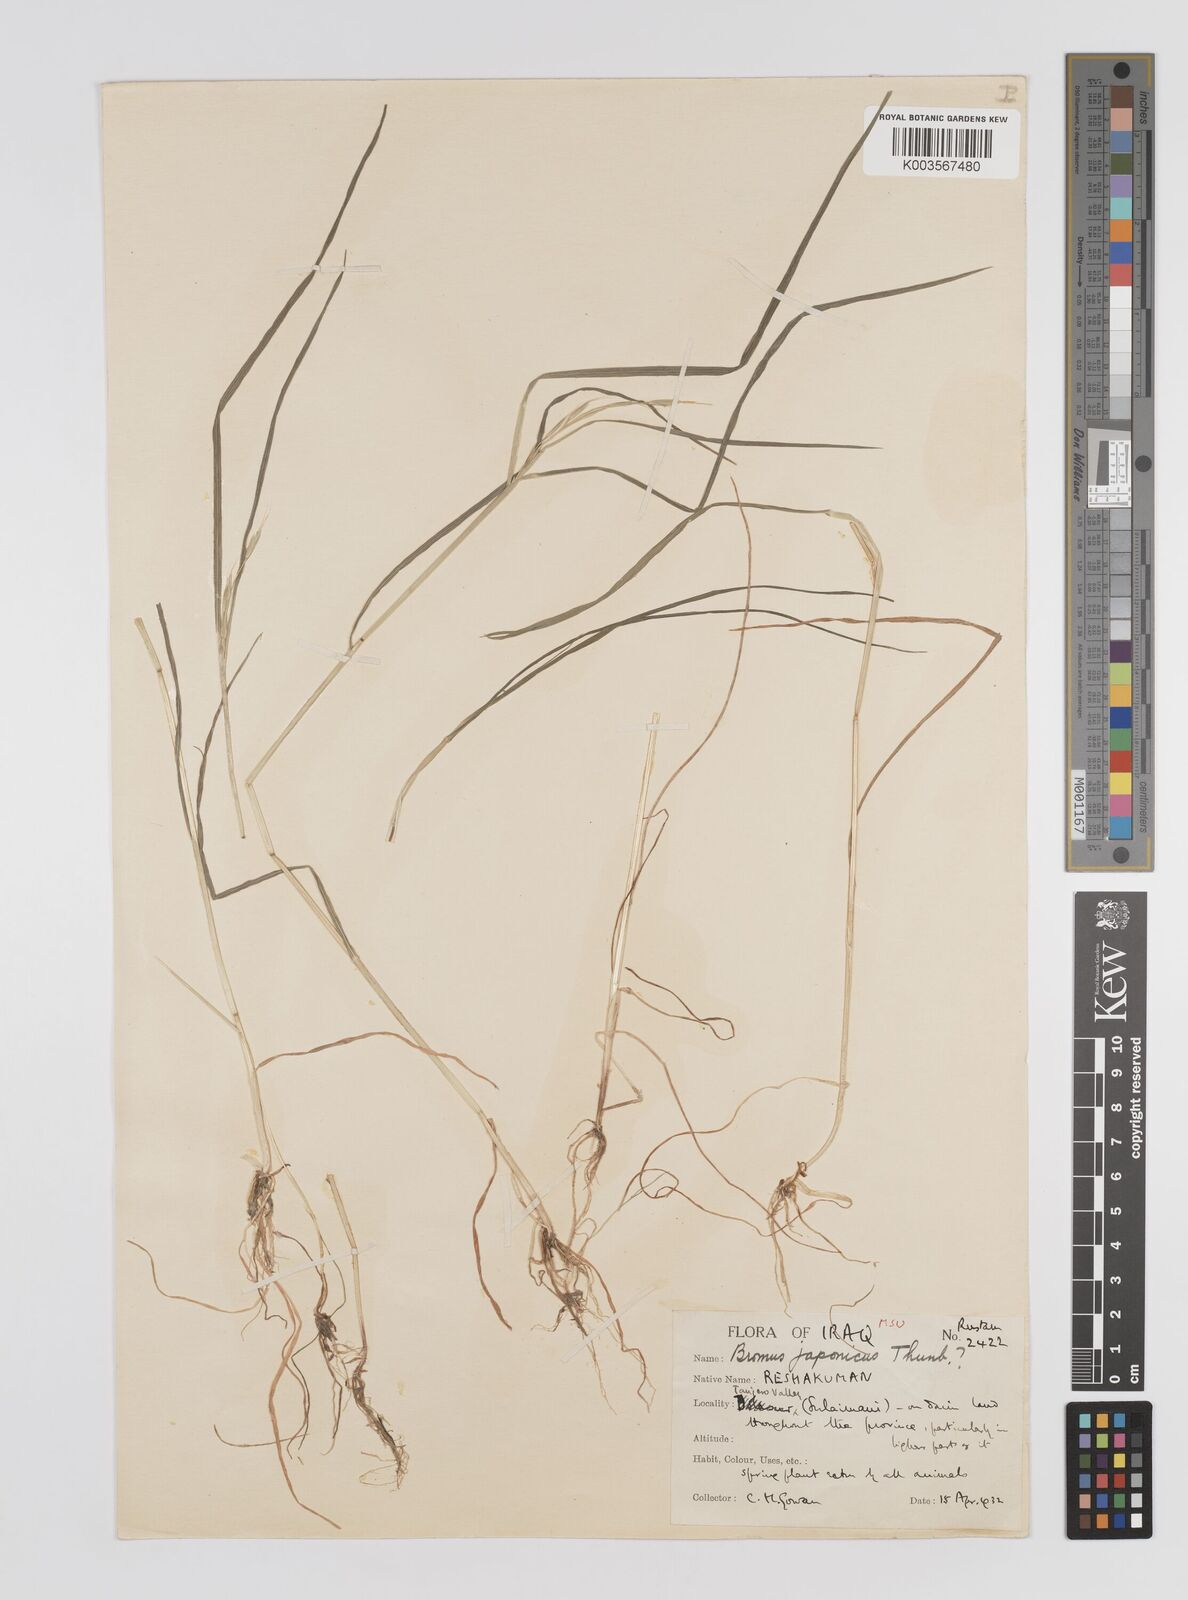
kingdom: Plantae
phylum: Tracheophyta
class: Liliopsida
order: Poales
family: Poaceae
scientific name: Poaceae
